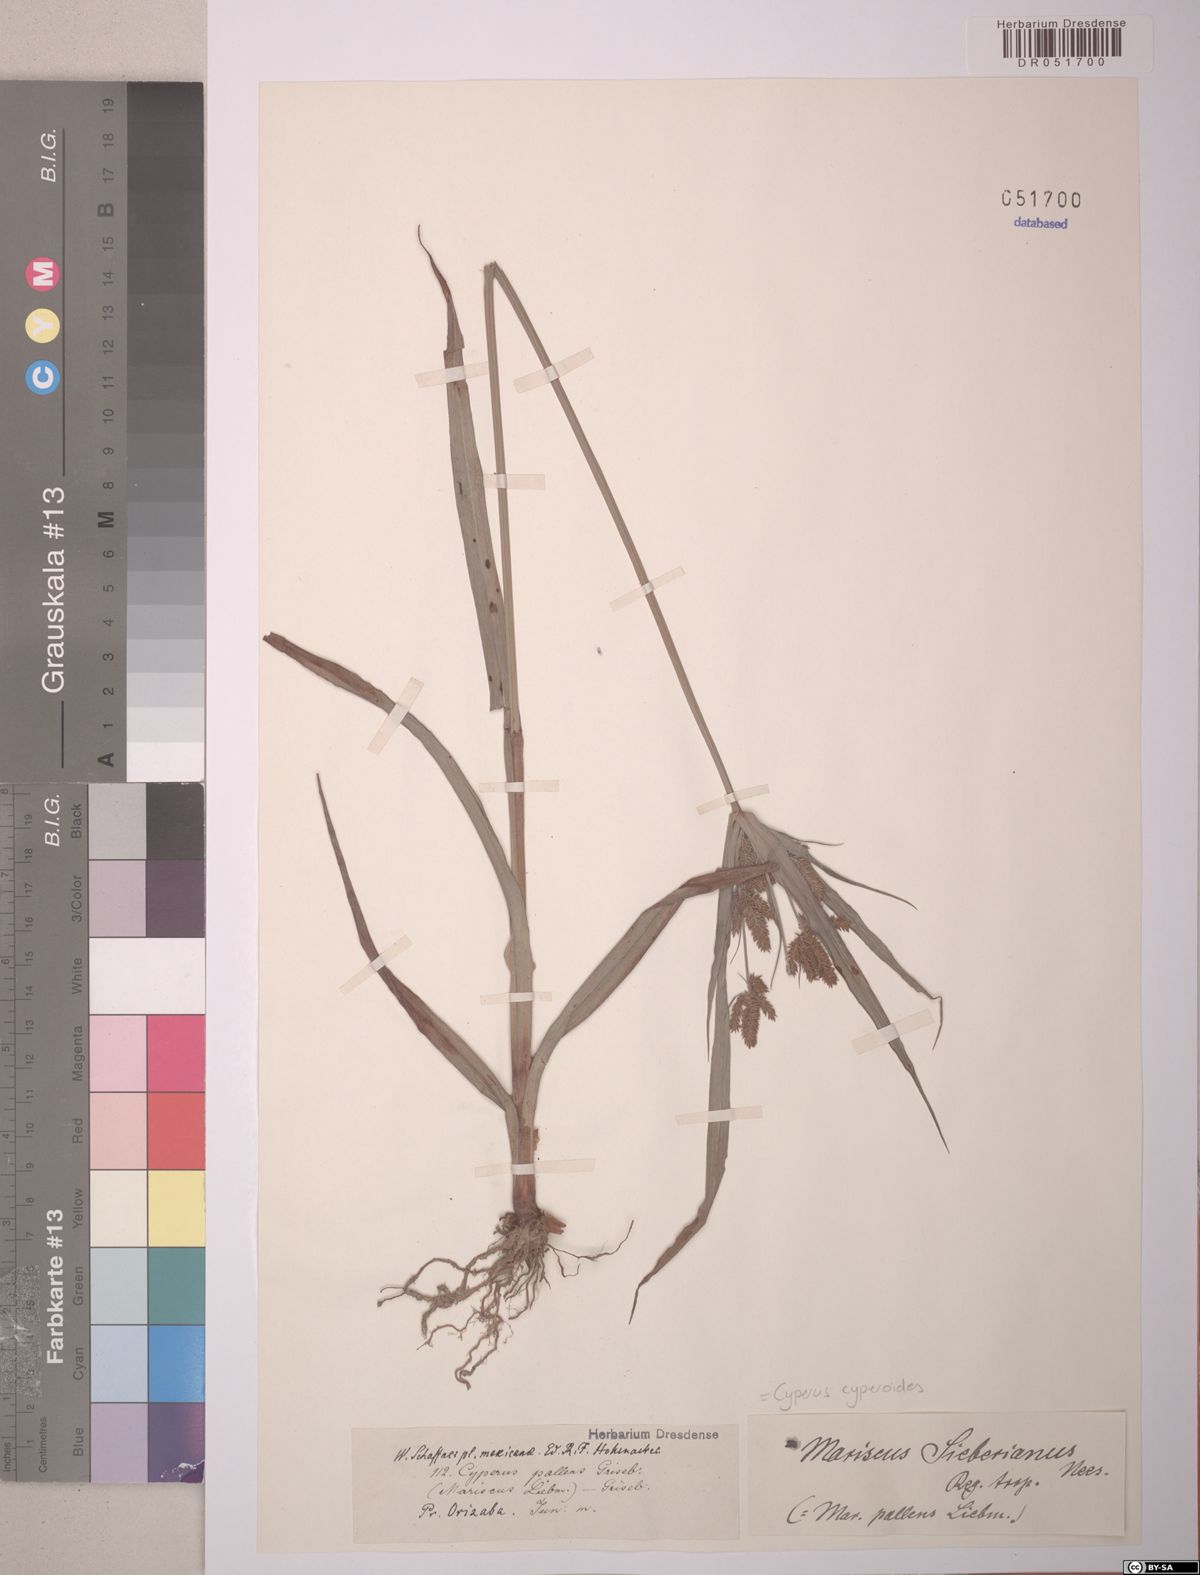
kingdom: Plantae
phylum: Tracheophyta
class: Liliopsida
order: Poales
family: Cyperaceae
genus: Cyperus
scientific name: Cyperus cyperoides
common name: Pacific island flat sedge
